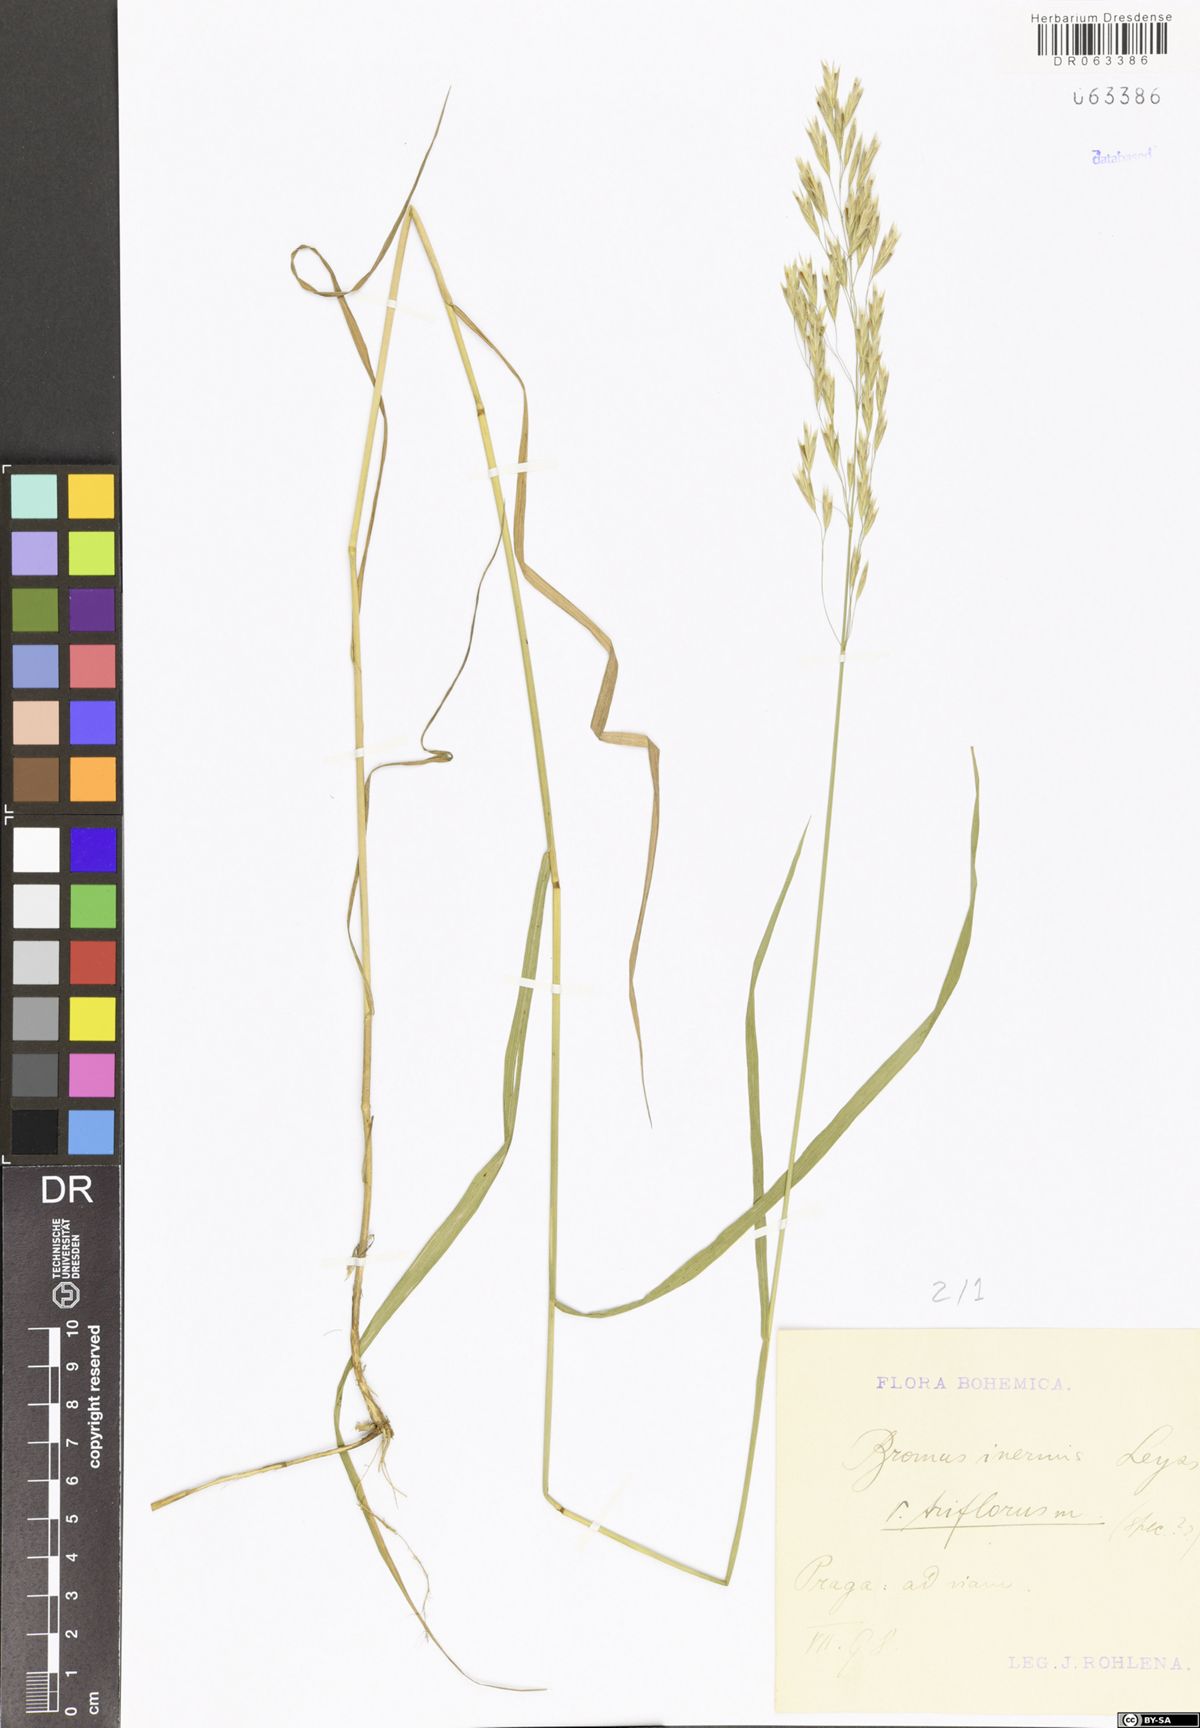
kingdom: Plantae
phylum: Tracheophyta
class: Liliopsida
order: Poales
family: Poaceae
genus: Bromus
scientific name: Bromus inermis
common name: Smooth brome
